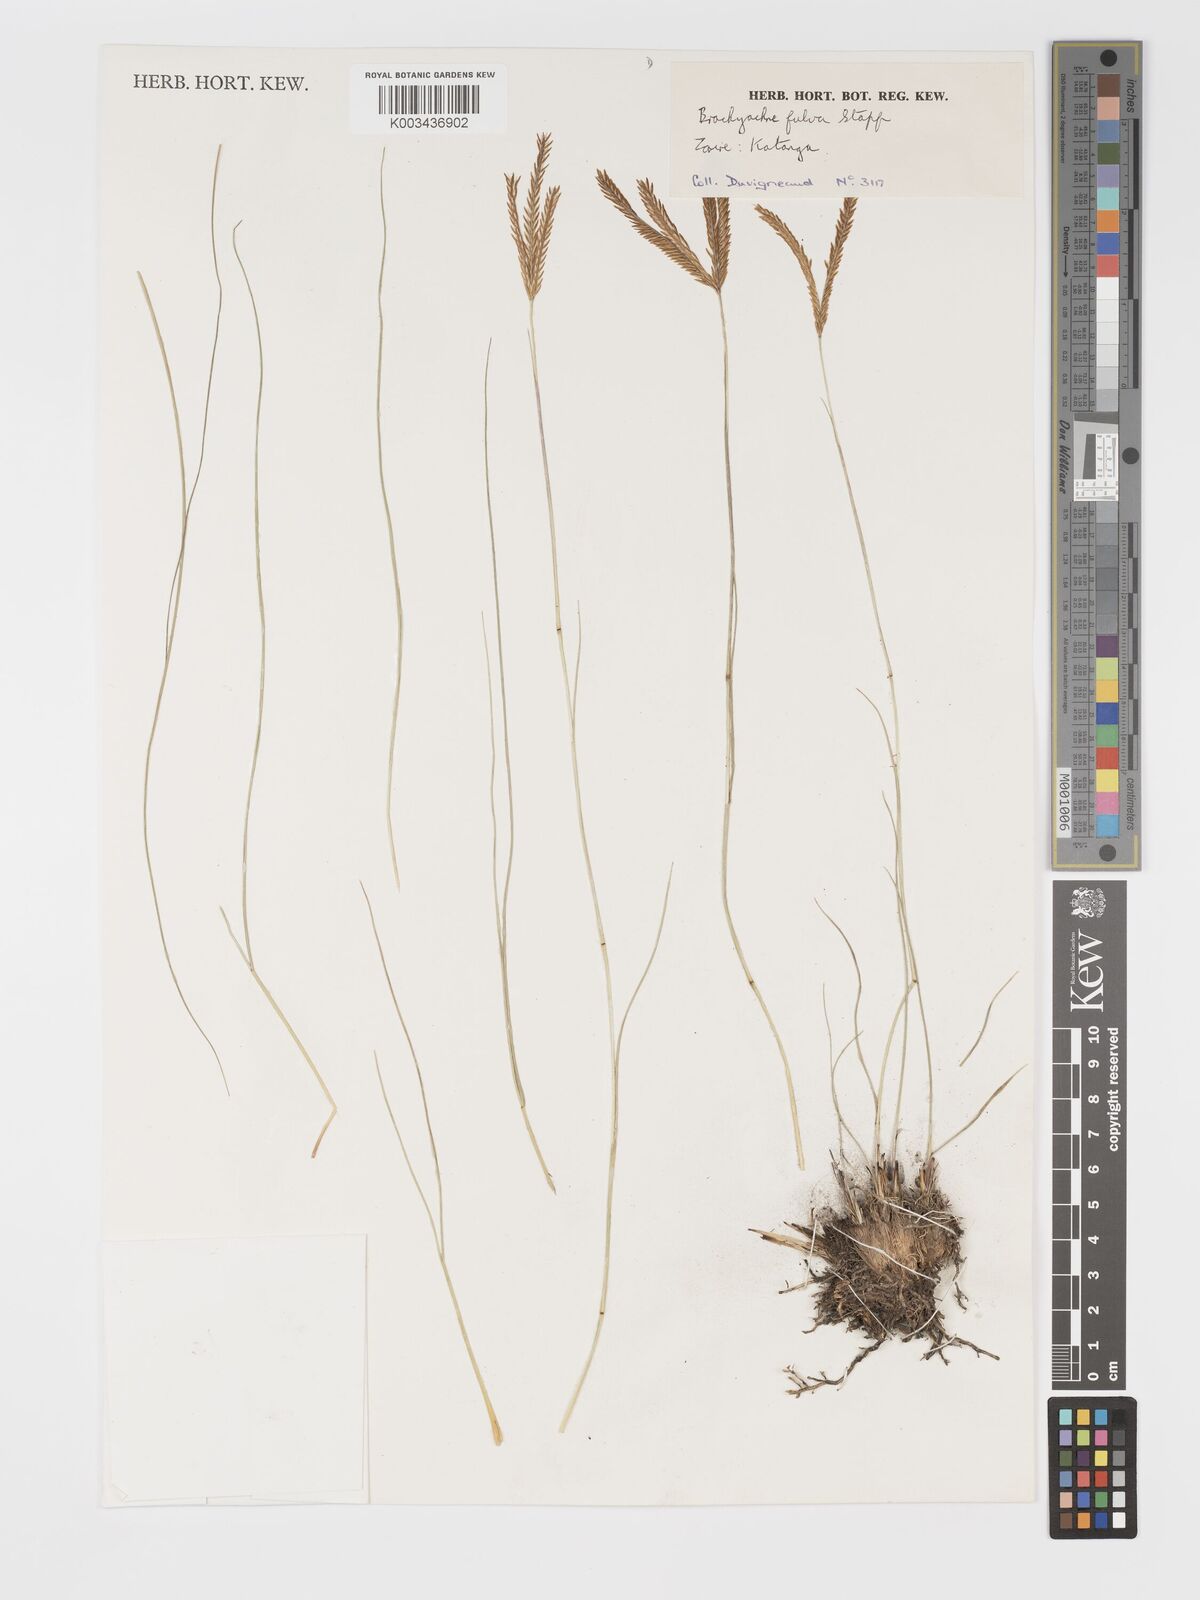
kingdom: Plantae
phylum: Tracheophyta
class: Liliopsida
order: Poales
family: Poaceae
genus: Micrachne
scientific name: Micrachne fulva
